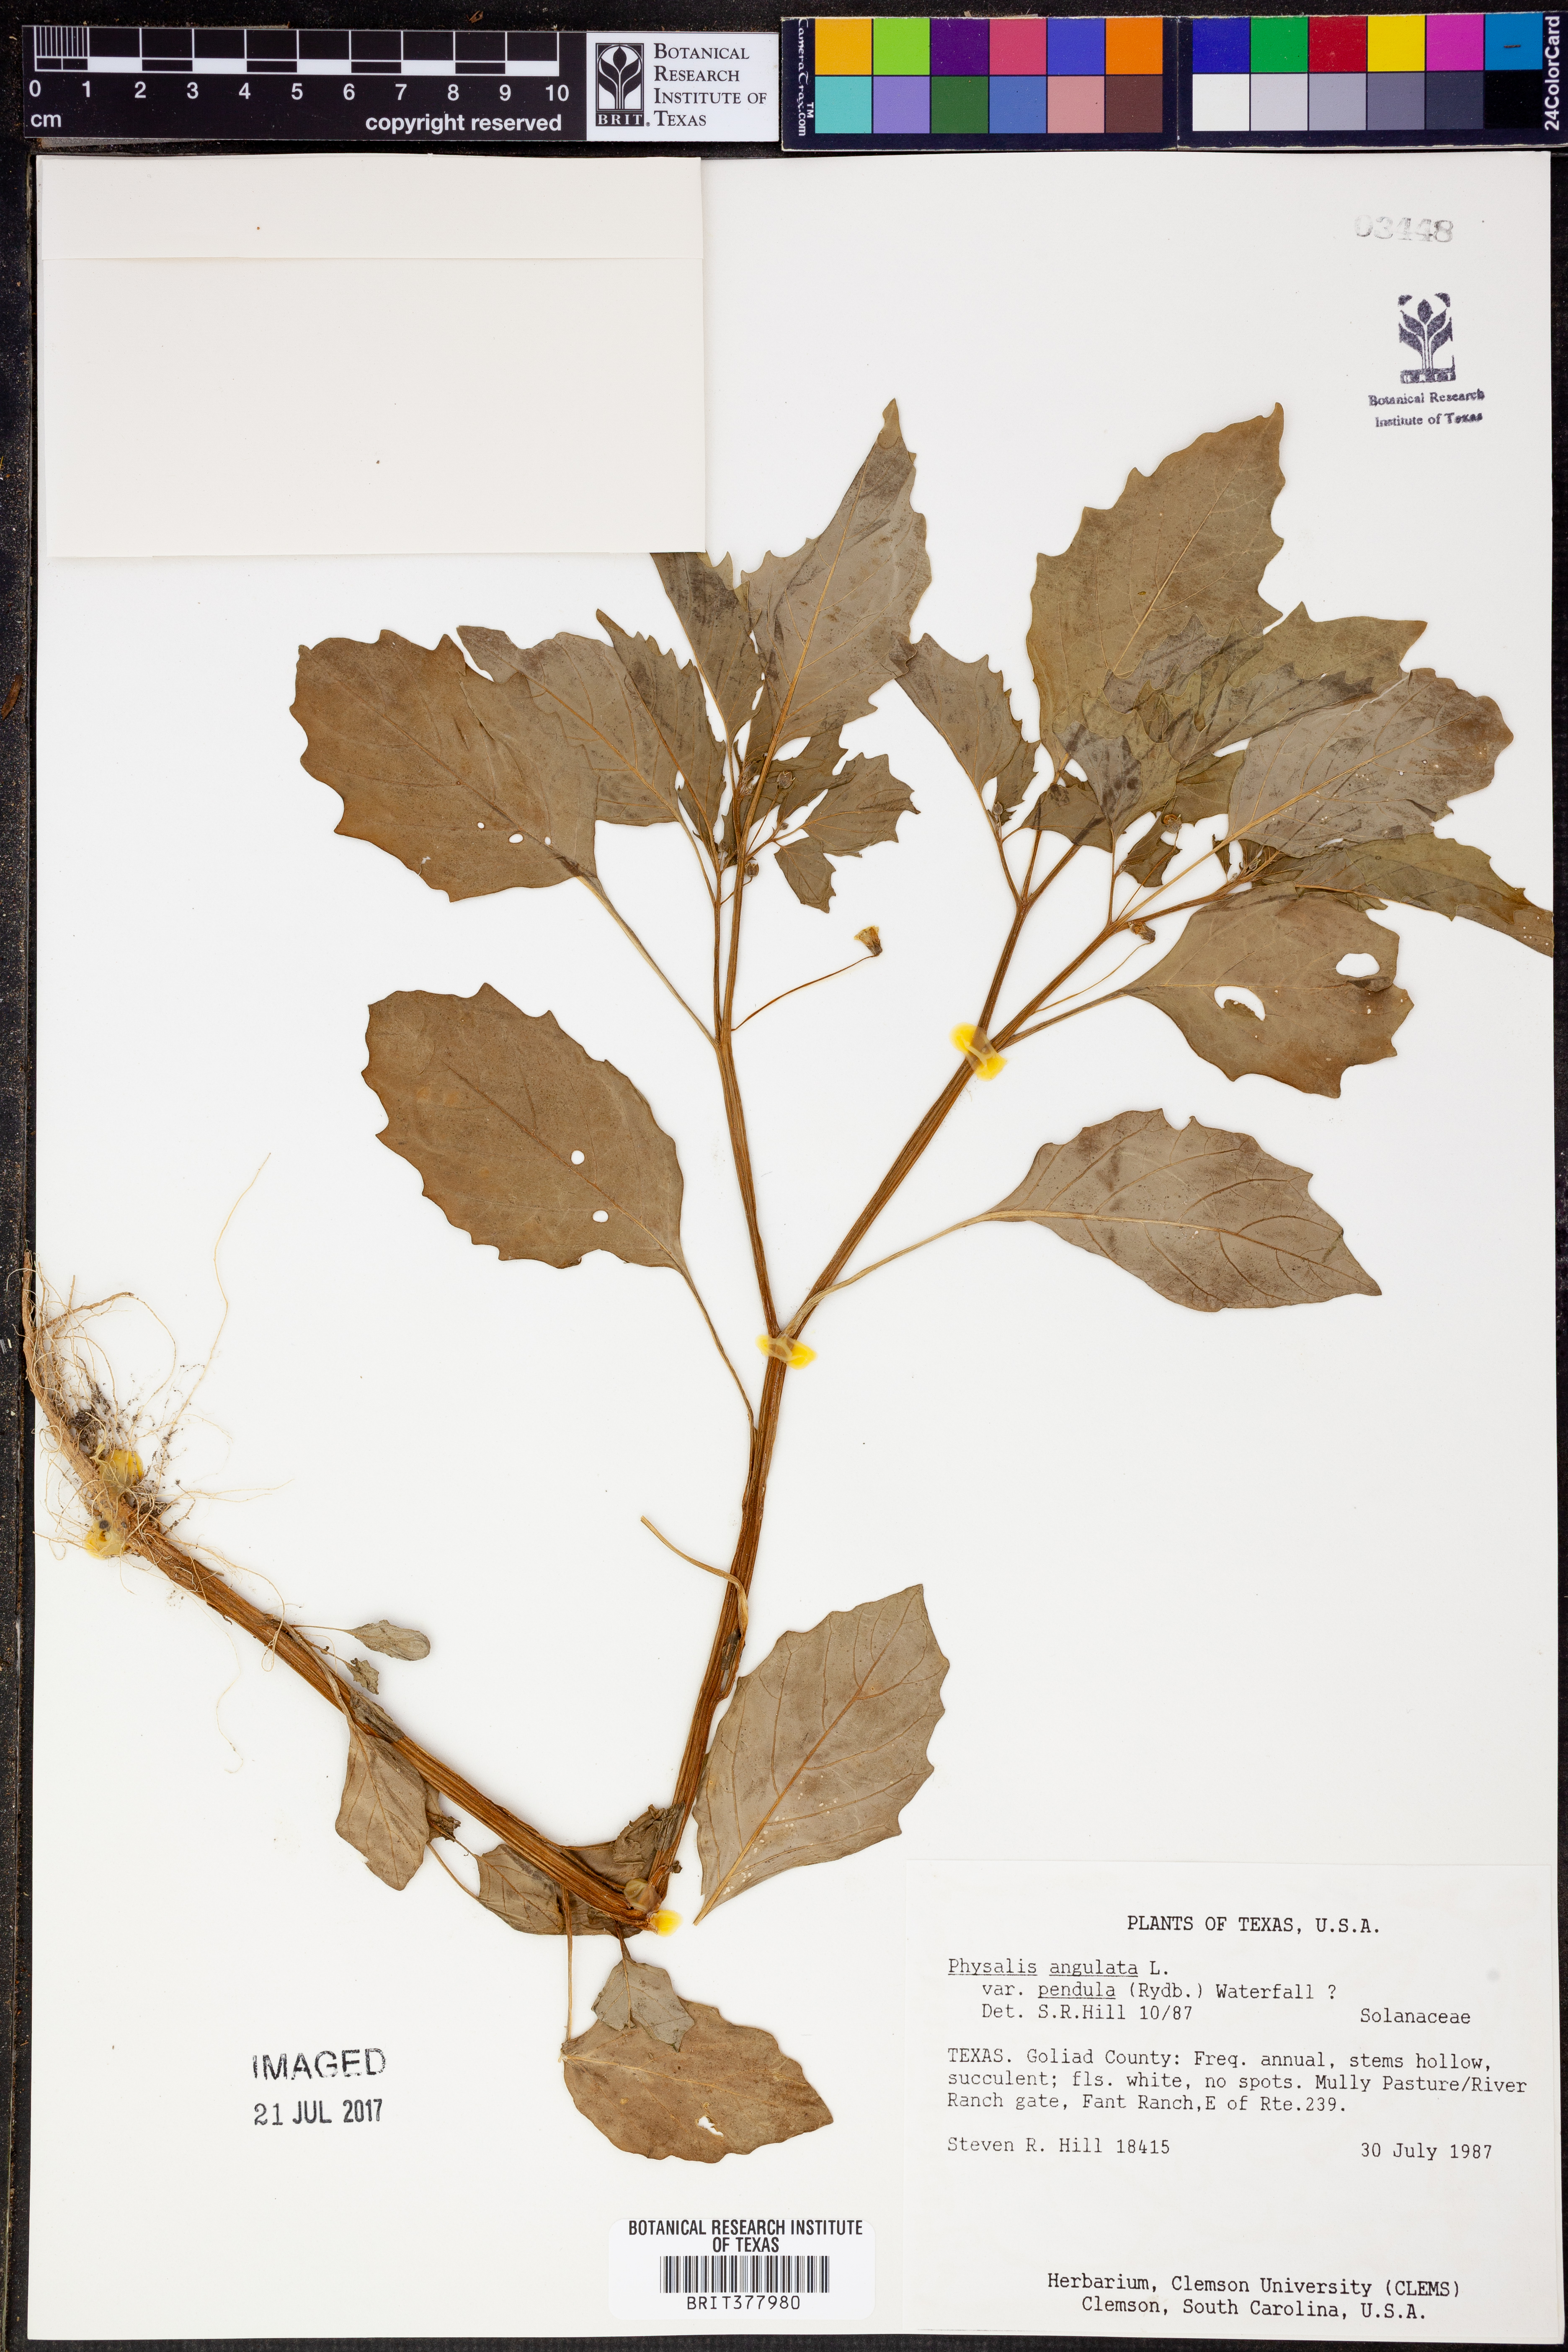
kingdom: Plantae
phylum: Tracheophyta
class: Magnoliopsida
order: Solanales
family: Solanaceae
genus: Physalis
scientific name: Physalis angulata
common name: Angular winter-cherry
